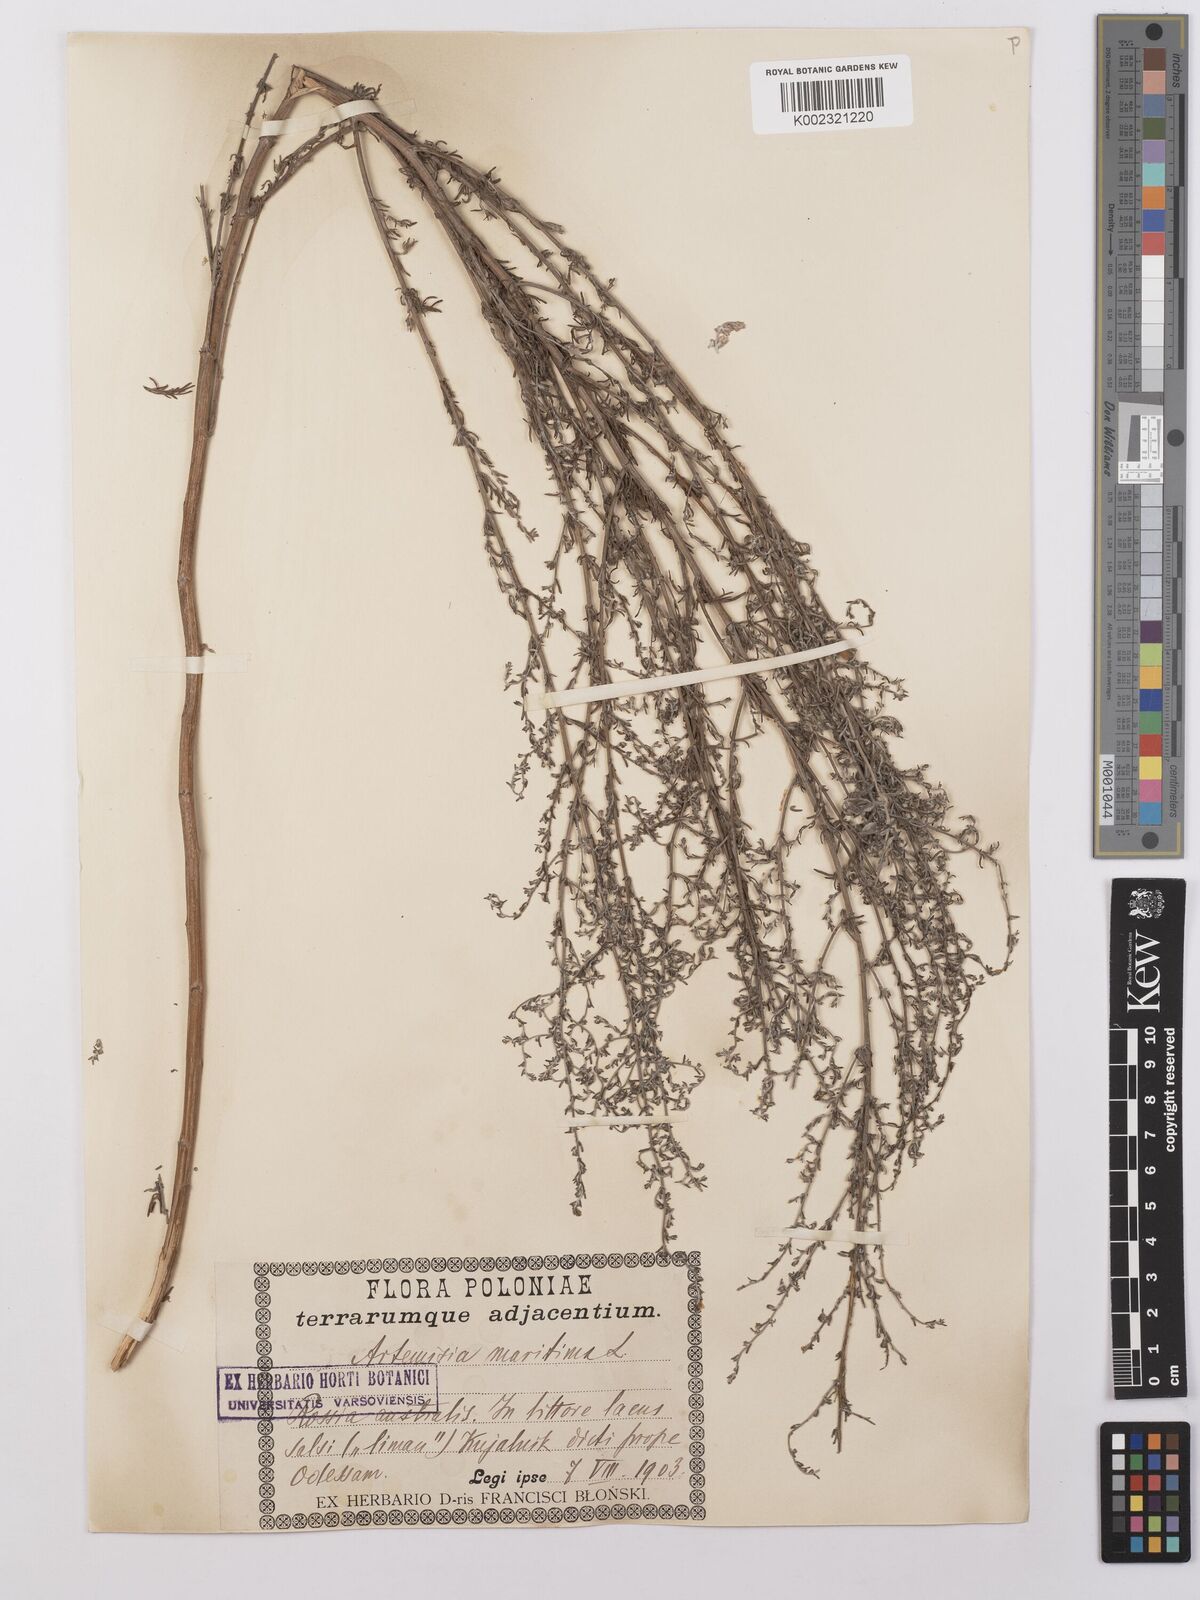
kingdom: Plantae
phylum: Tracheophyta
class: Magnoliopsida
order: Asterales
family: Asteraceae
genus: Artemisia
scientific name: Artemisia maritima
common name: Wormseed
